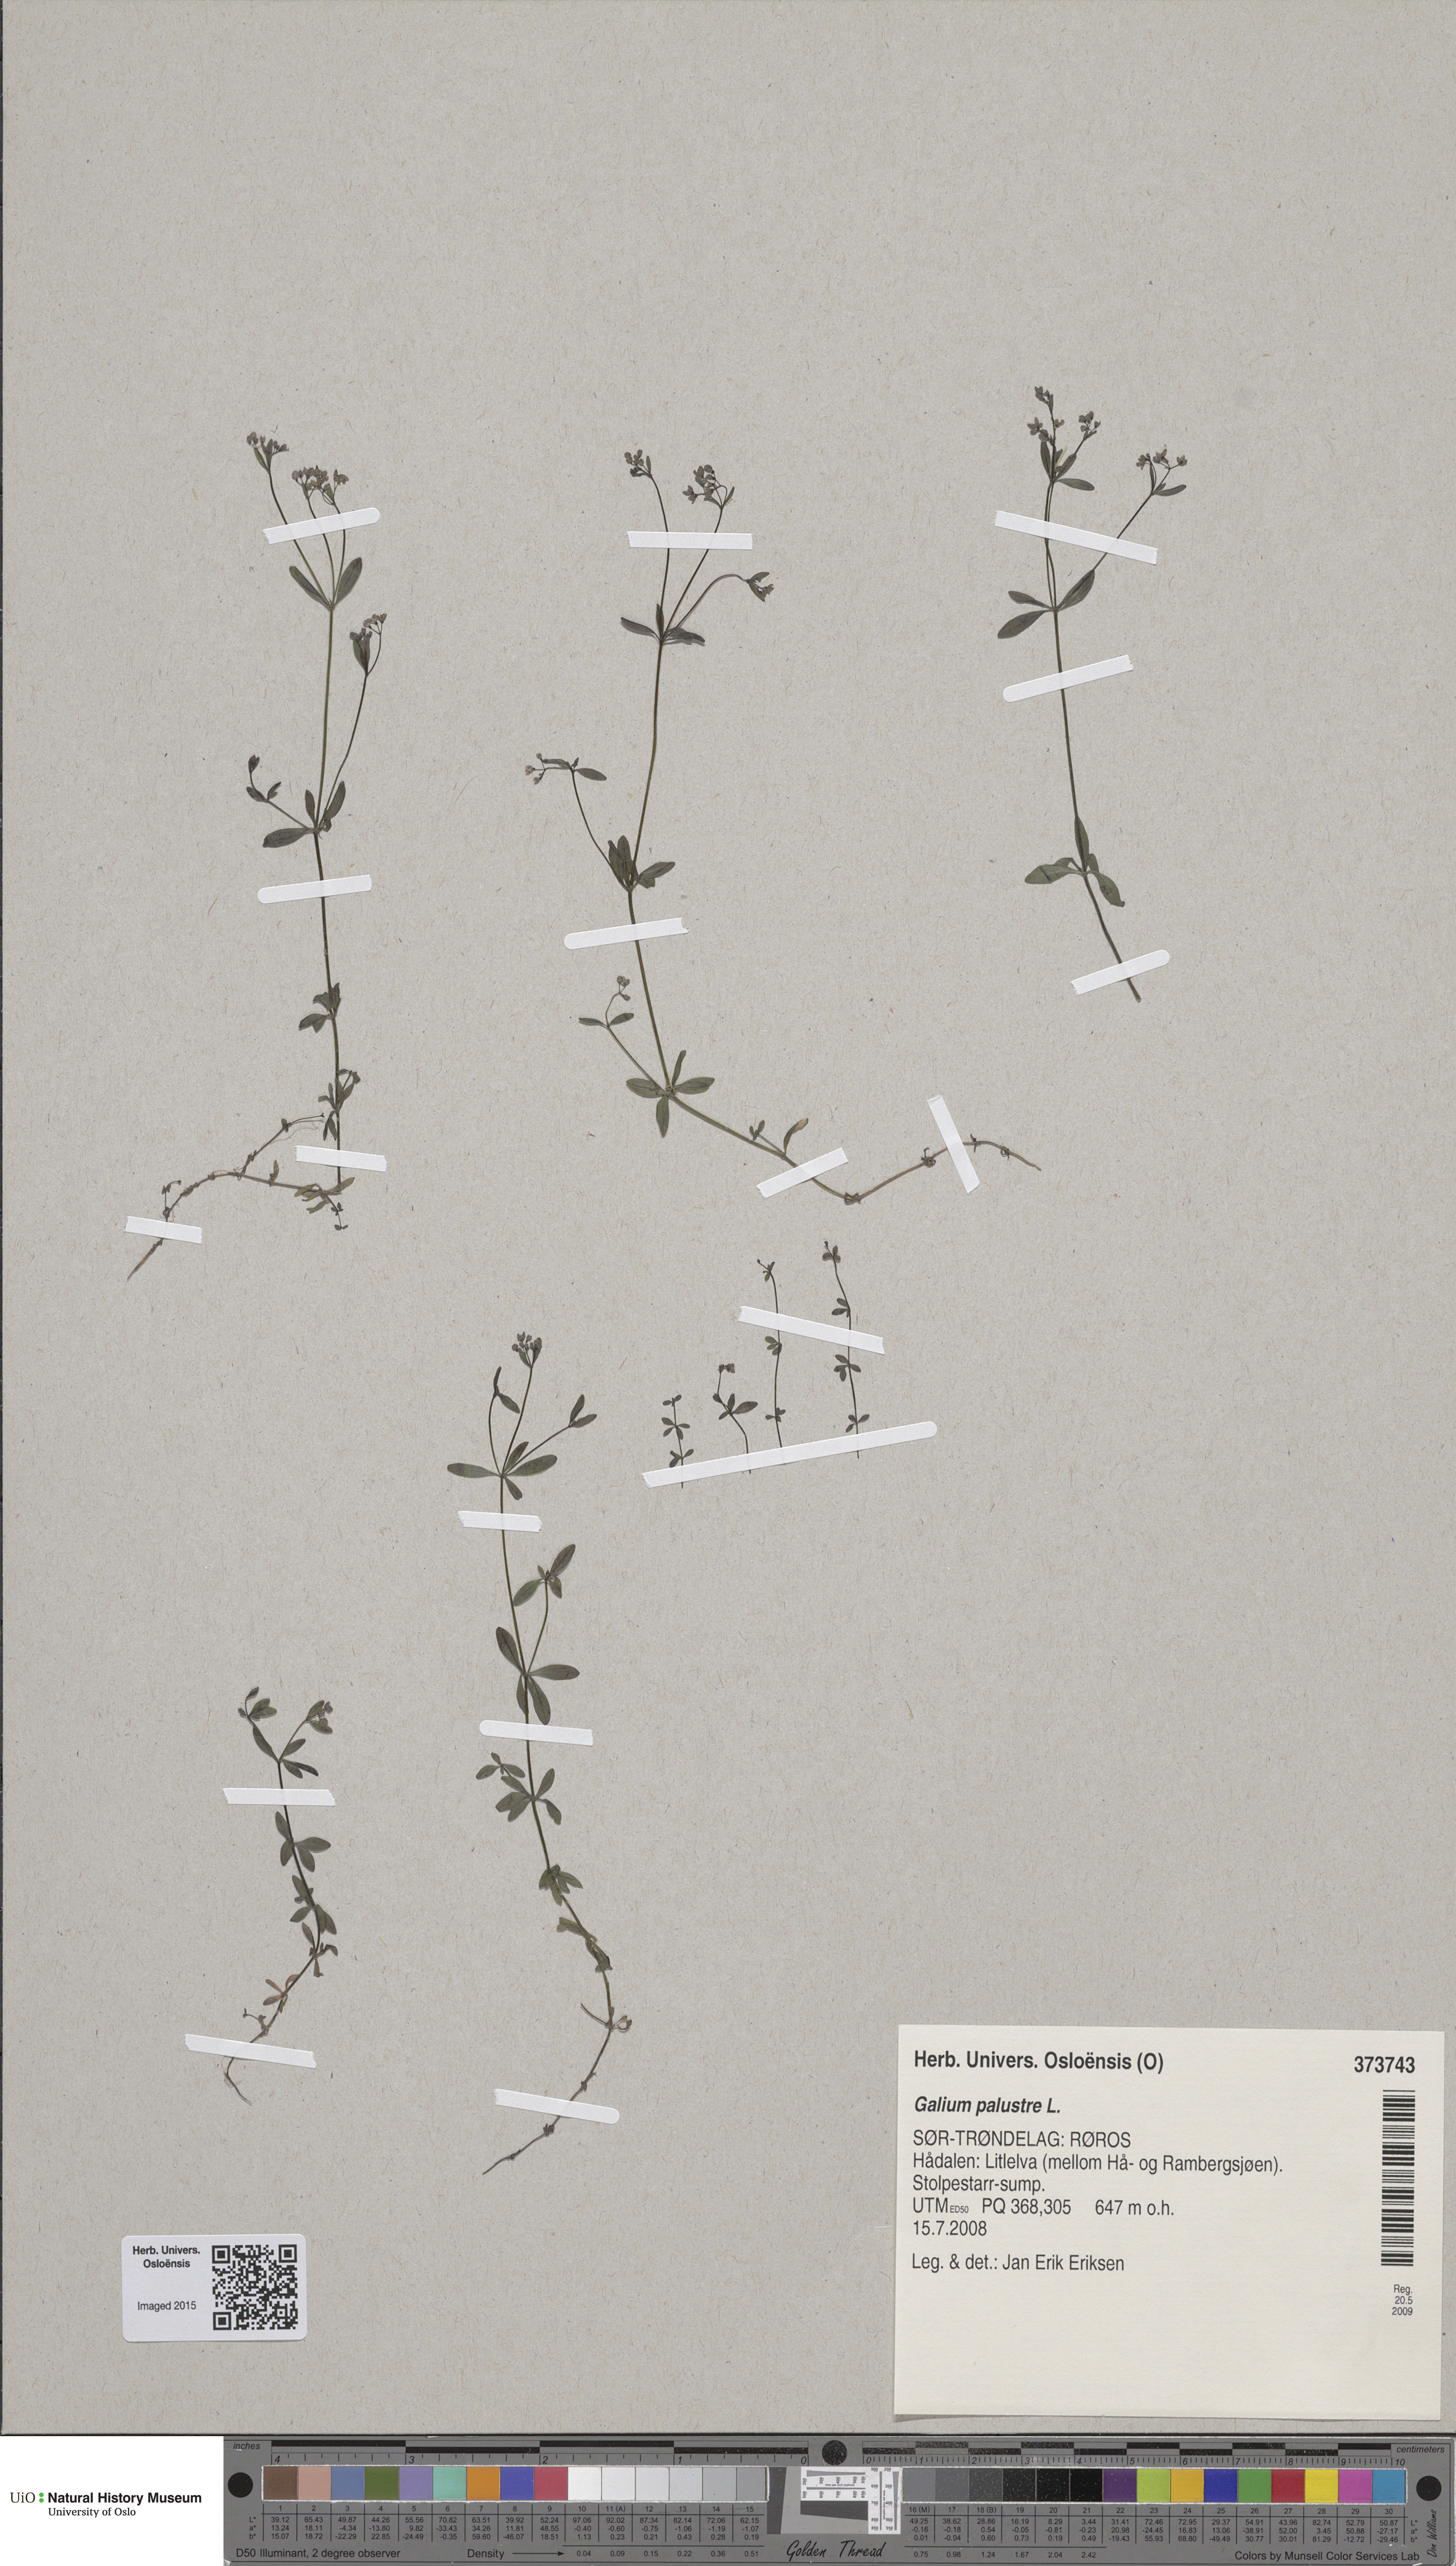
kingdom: Plantae
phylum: Tracheophyta
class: Magnoliopsida
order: Gentianales
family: Rubiaceae
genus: Galium
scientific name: Galium palustre
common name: Common marsh-bedstraw
